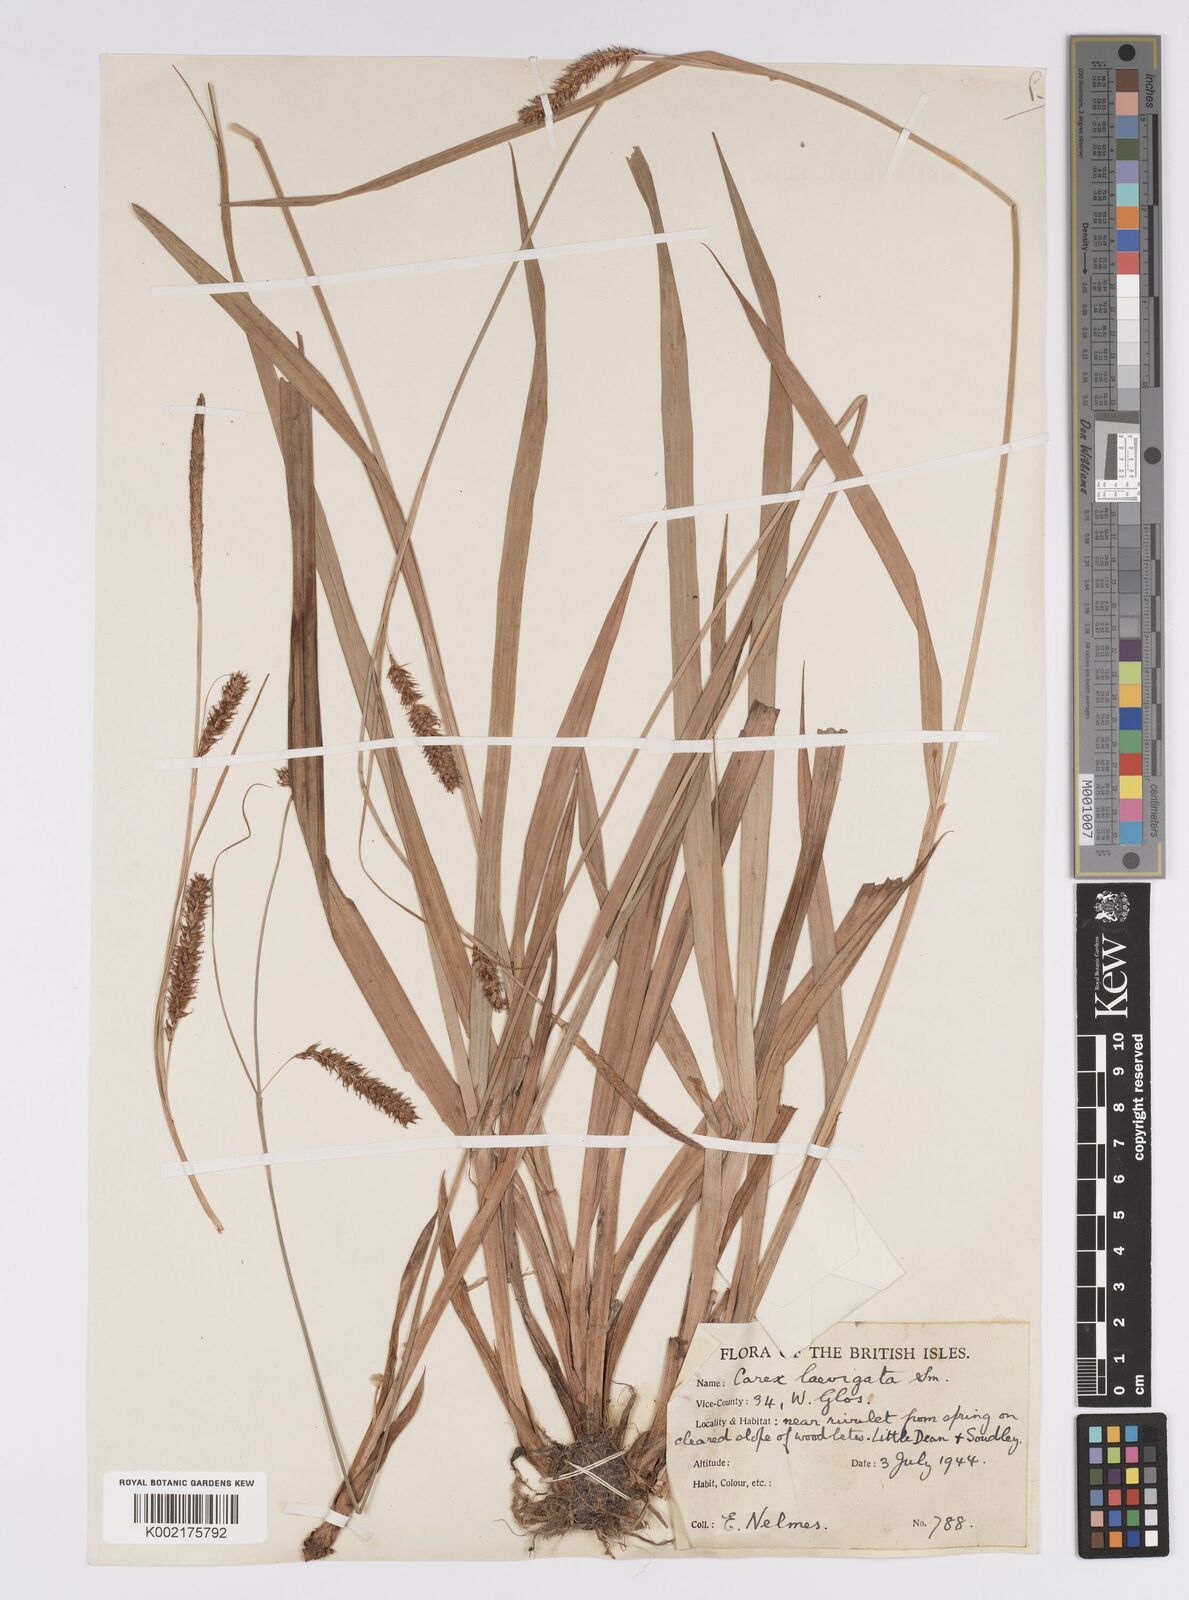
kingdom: Plantae
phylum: Tracheophyta
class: Liliopsida
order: Poales
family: Cyperaceae
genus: Carex
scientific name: Carex laevigata
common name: Smooth-stalked sedge
